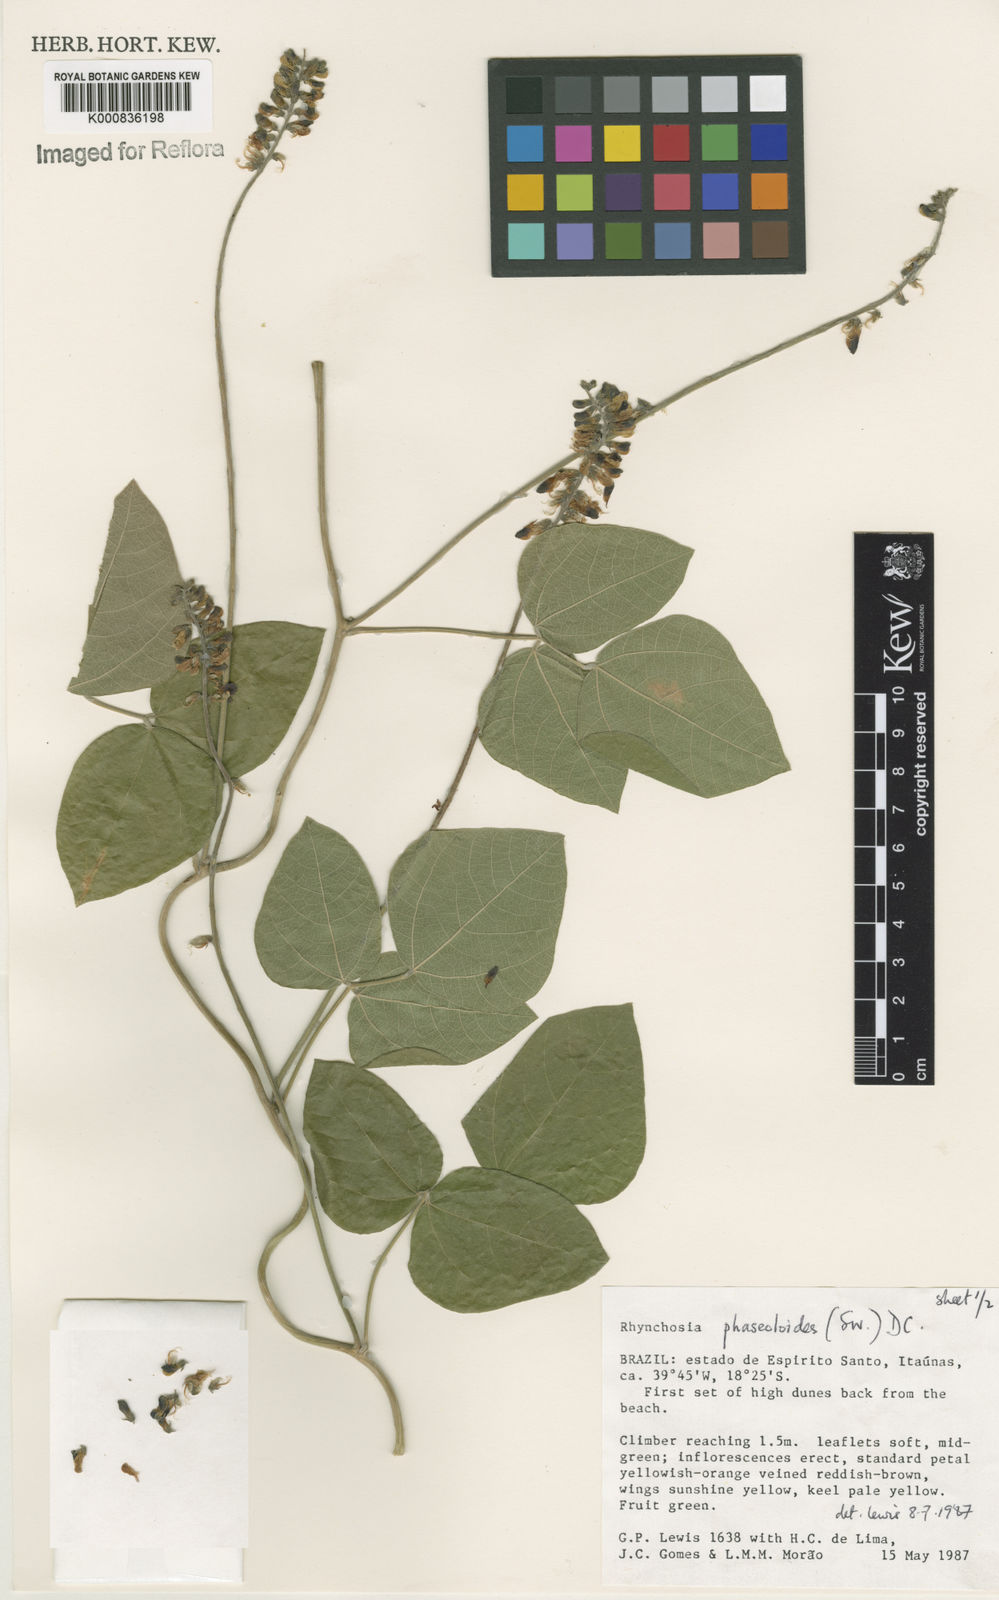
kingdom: Plantae
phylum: Tracheophyta
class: Magnoliopsida
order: Fabales
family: Fabaceae
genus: Rhynchosia
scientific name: Rhynchosia phaseoloides
